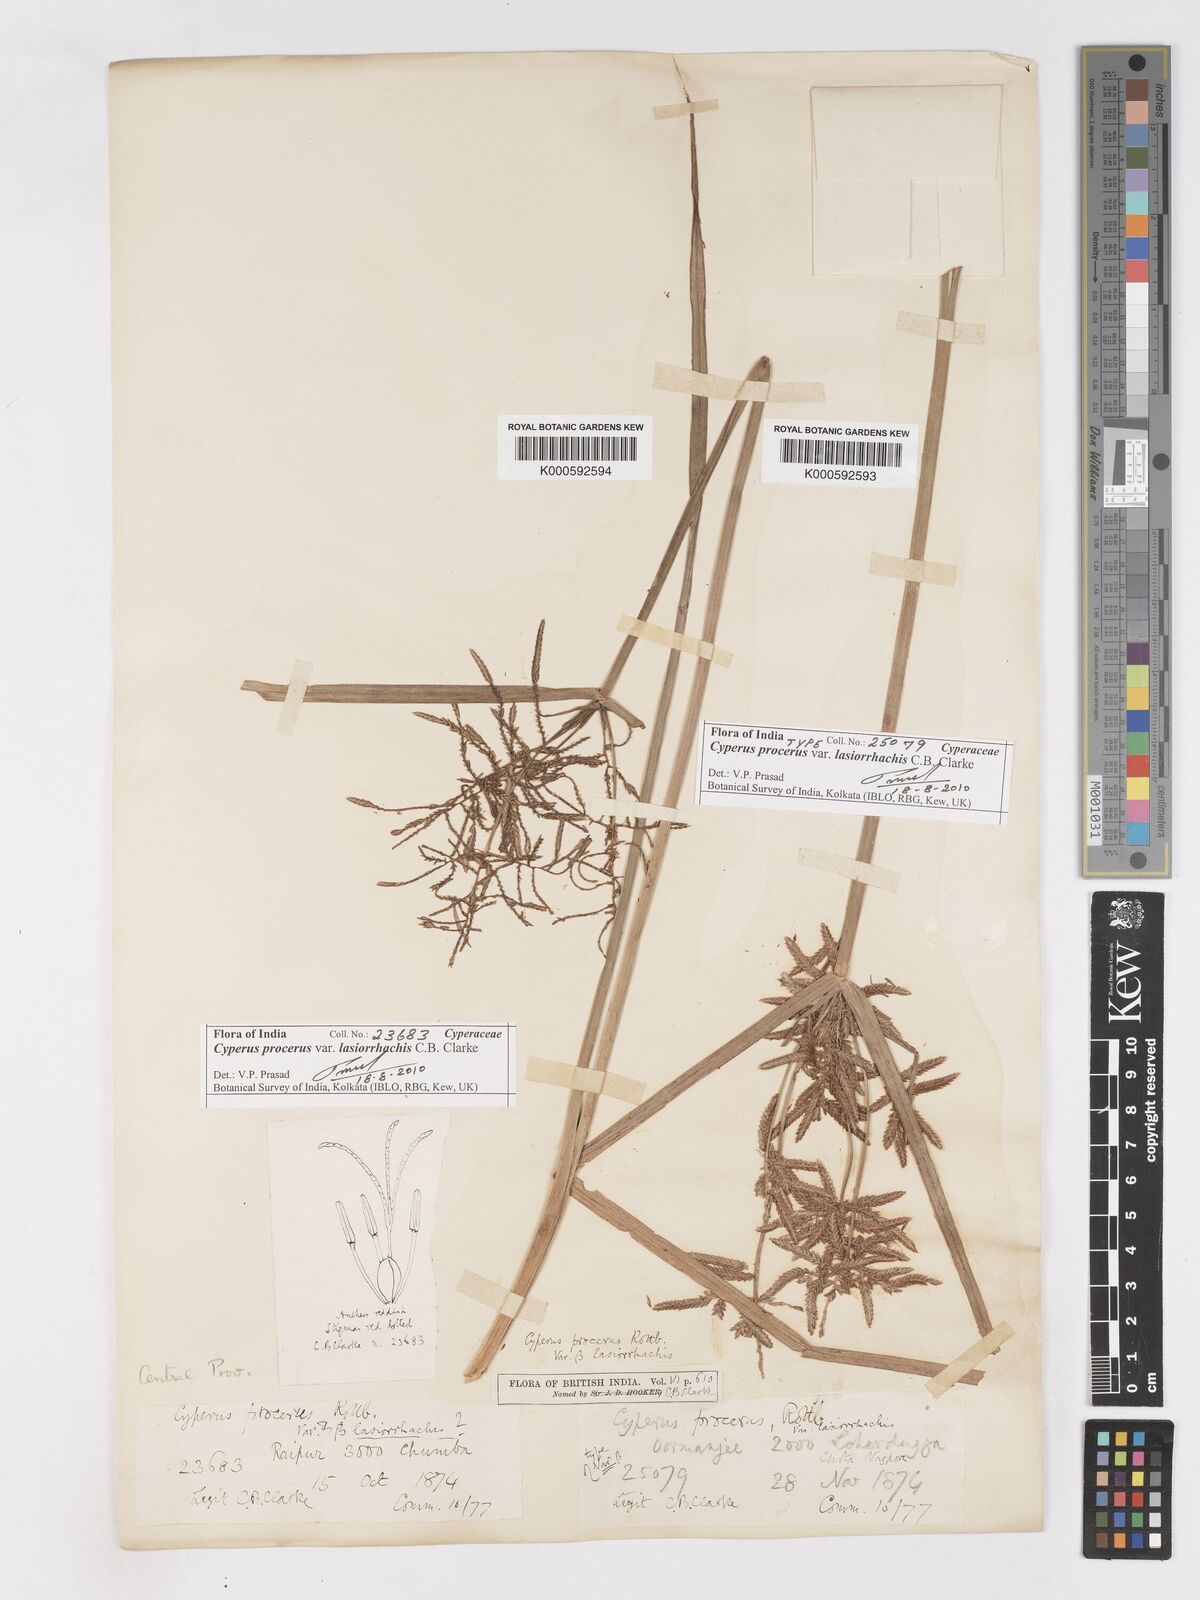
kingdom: Plantae
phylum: Tracheophyta
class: Liliopsida
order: Poales
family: Cyperaceae
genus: Cyperus
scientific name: Cyperus procerus
